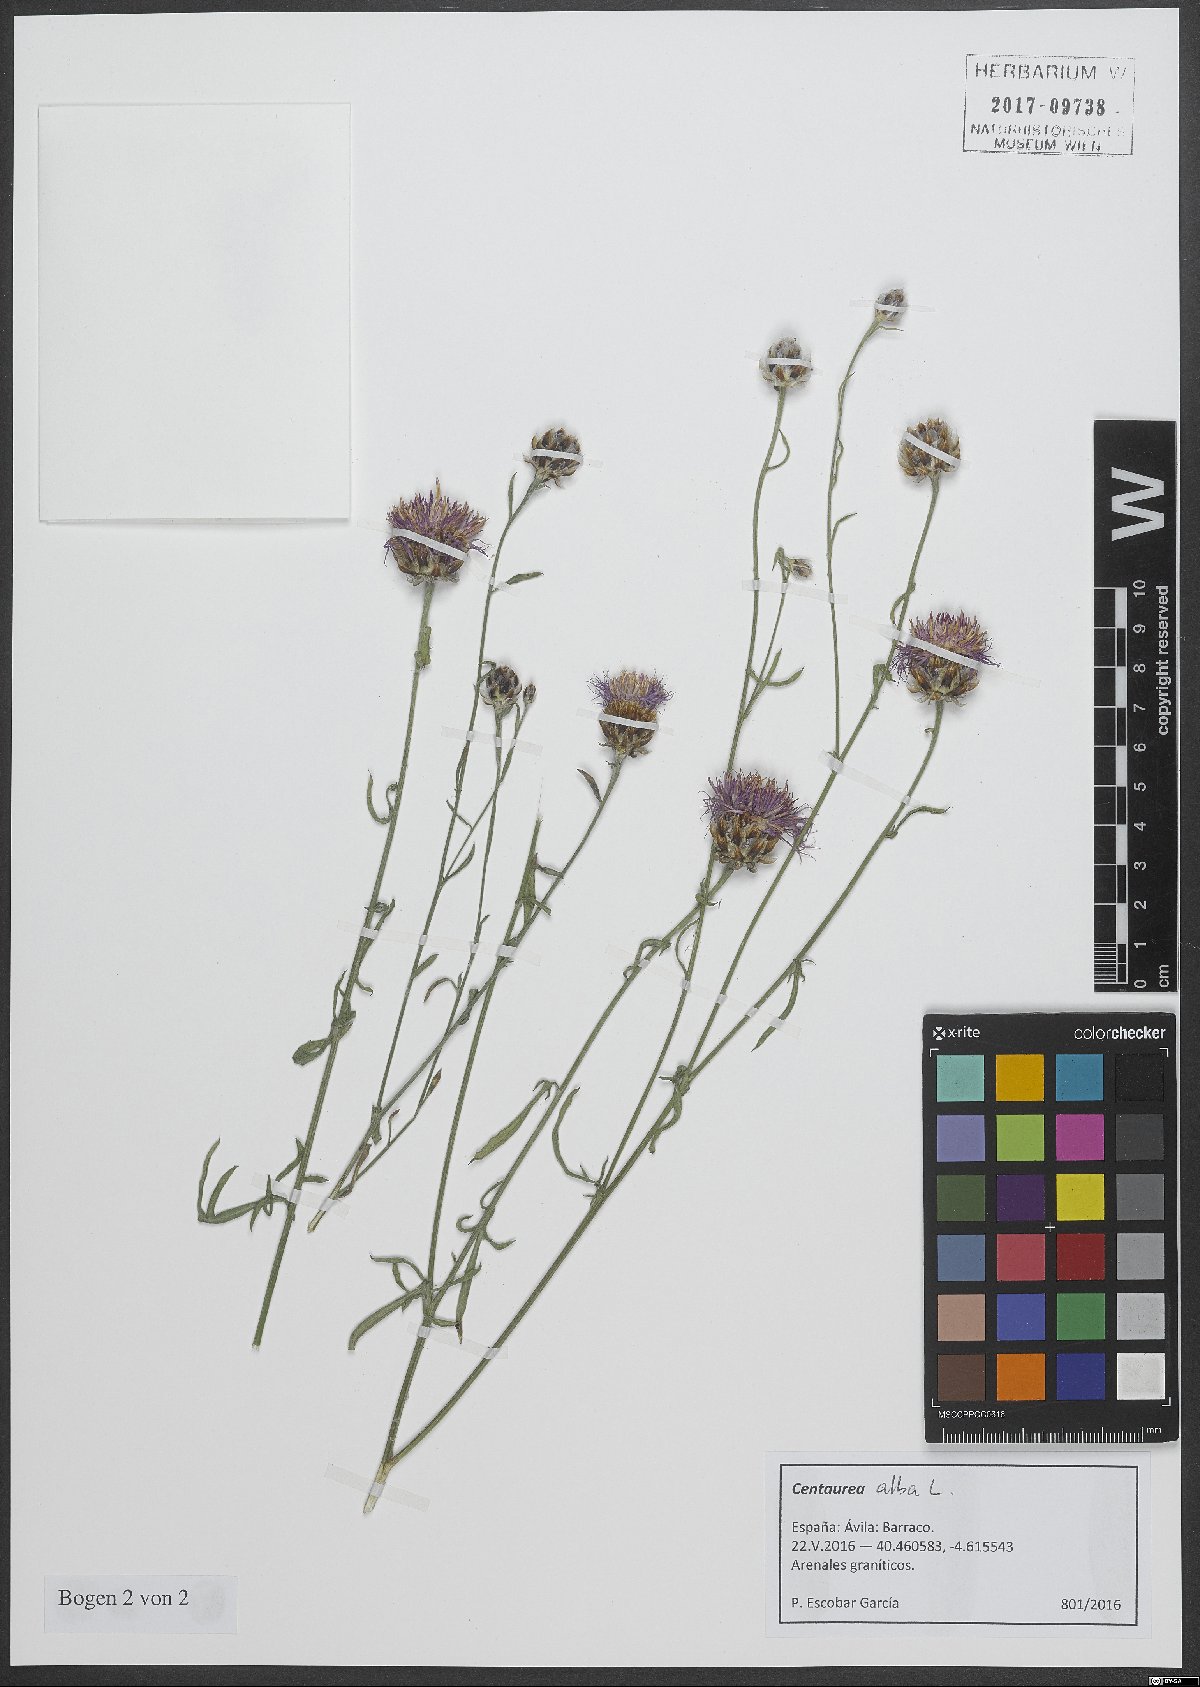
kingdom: Plantae
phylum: Tracheophyta
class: Magnoliopsida
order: Asterales
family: Asteraceae
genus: Centaurea
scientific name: Centaurea alba
